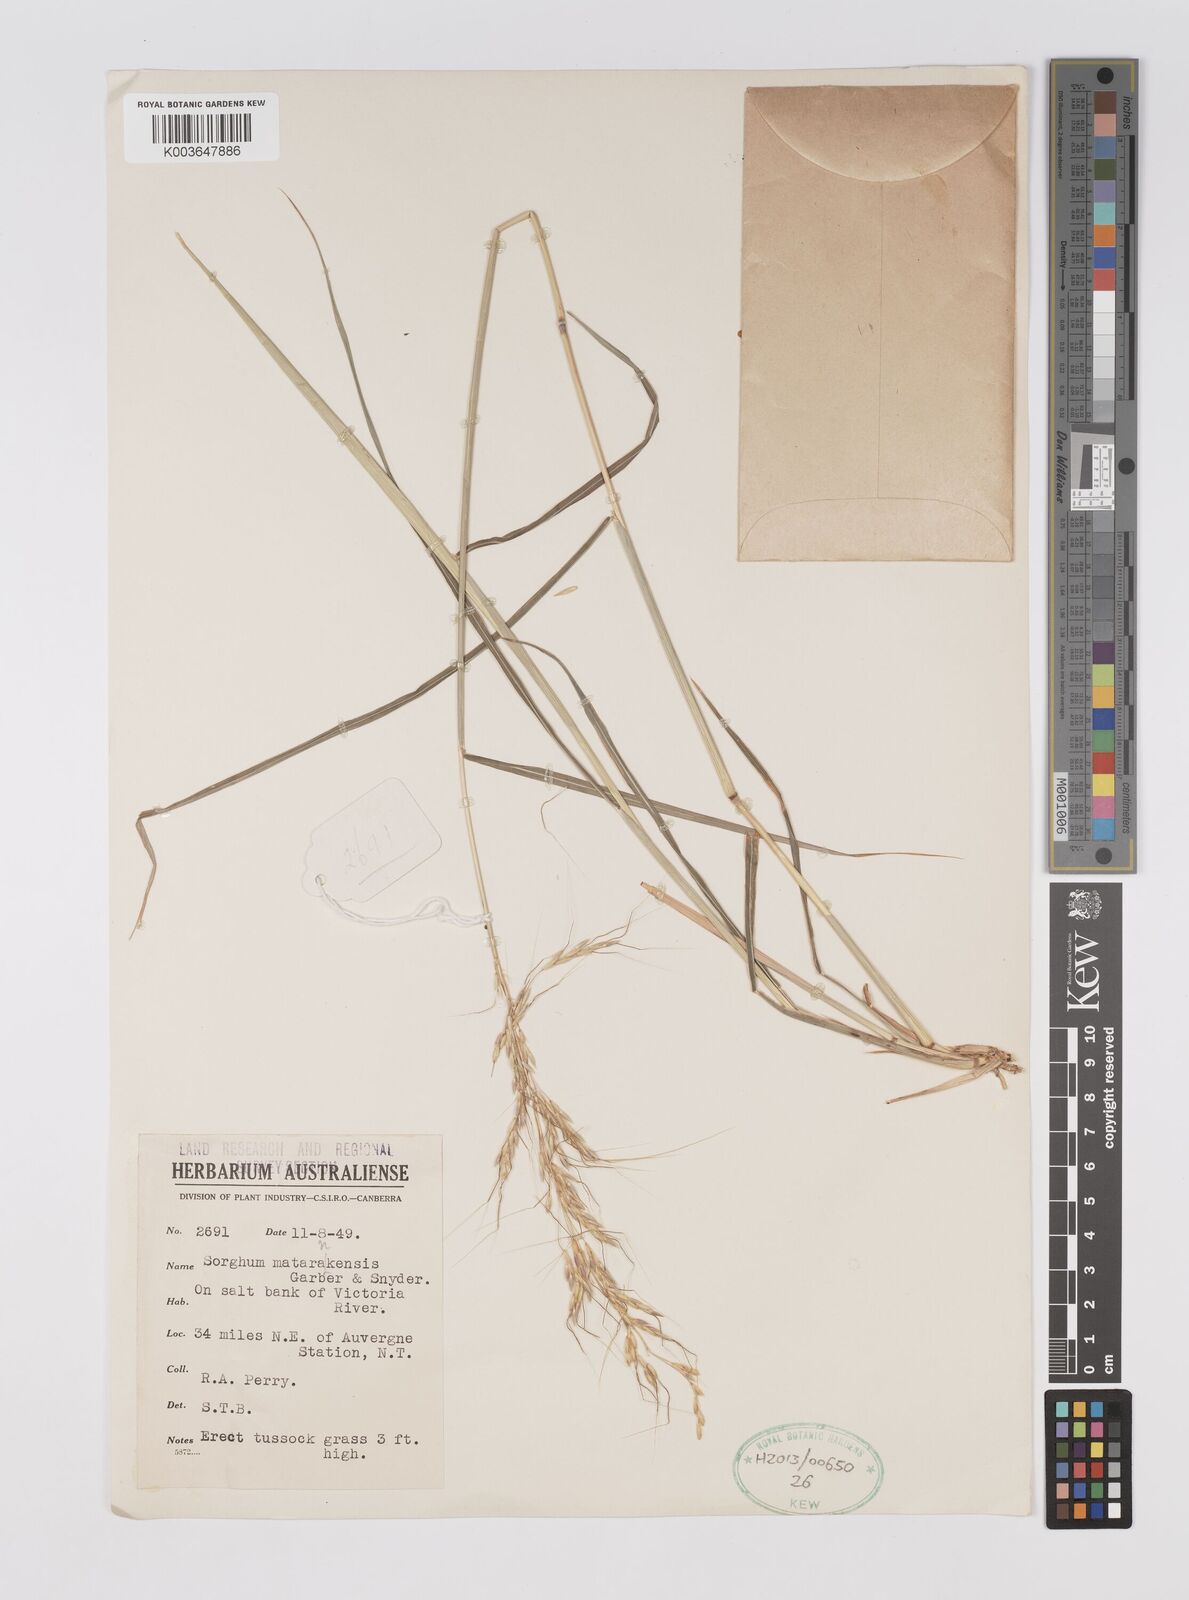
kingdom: Plantae
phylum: Tracheophyta
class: Liliopsida
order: Poales
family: Poaceae
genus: Sorghum
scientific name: Sorghum matarankense
